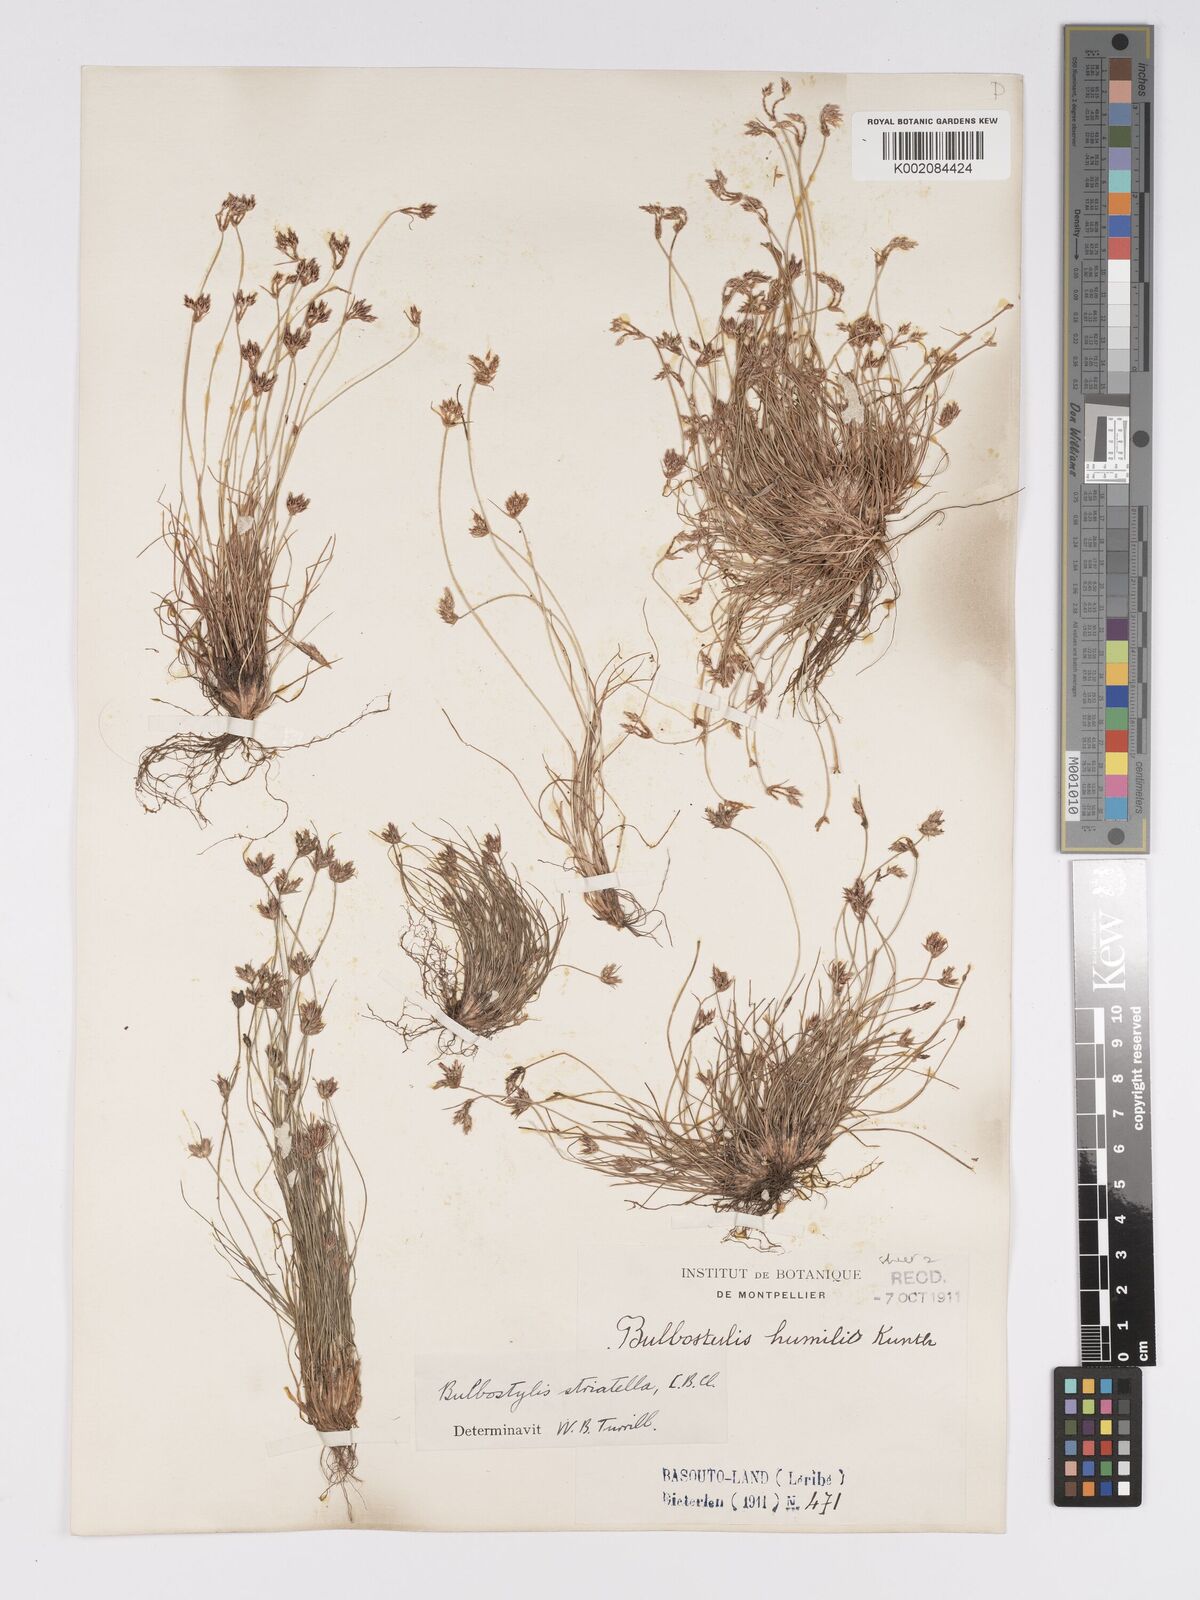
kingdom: Plantae
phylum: Tracheophyta
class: Liliopsida
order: Poales
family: Cyperaceae
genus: Bulbostylis
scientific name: Bulbostylis humilis
